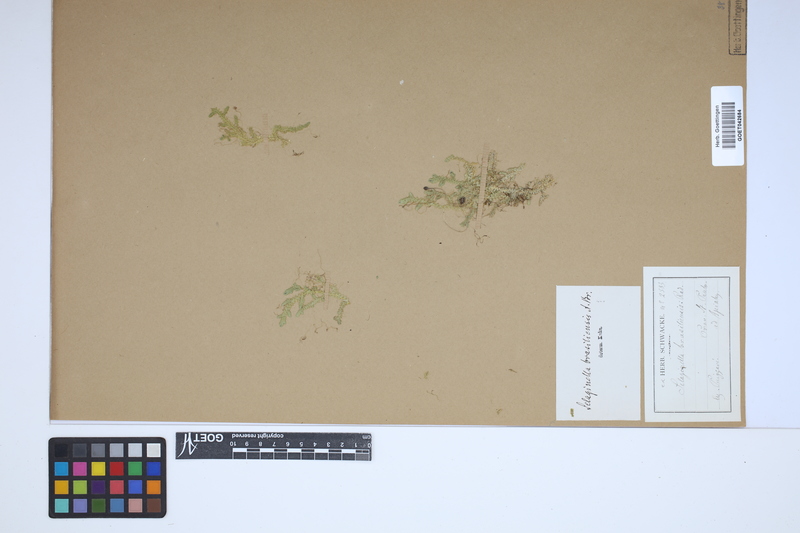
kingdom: Plantae
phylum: Tracheophyta
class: Lycopodiopsida
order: Selaginellales
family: Selaginellaceae
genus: Selaginella
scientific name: Selaginella muscosa
